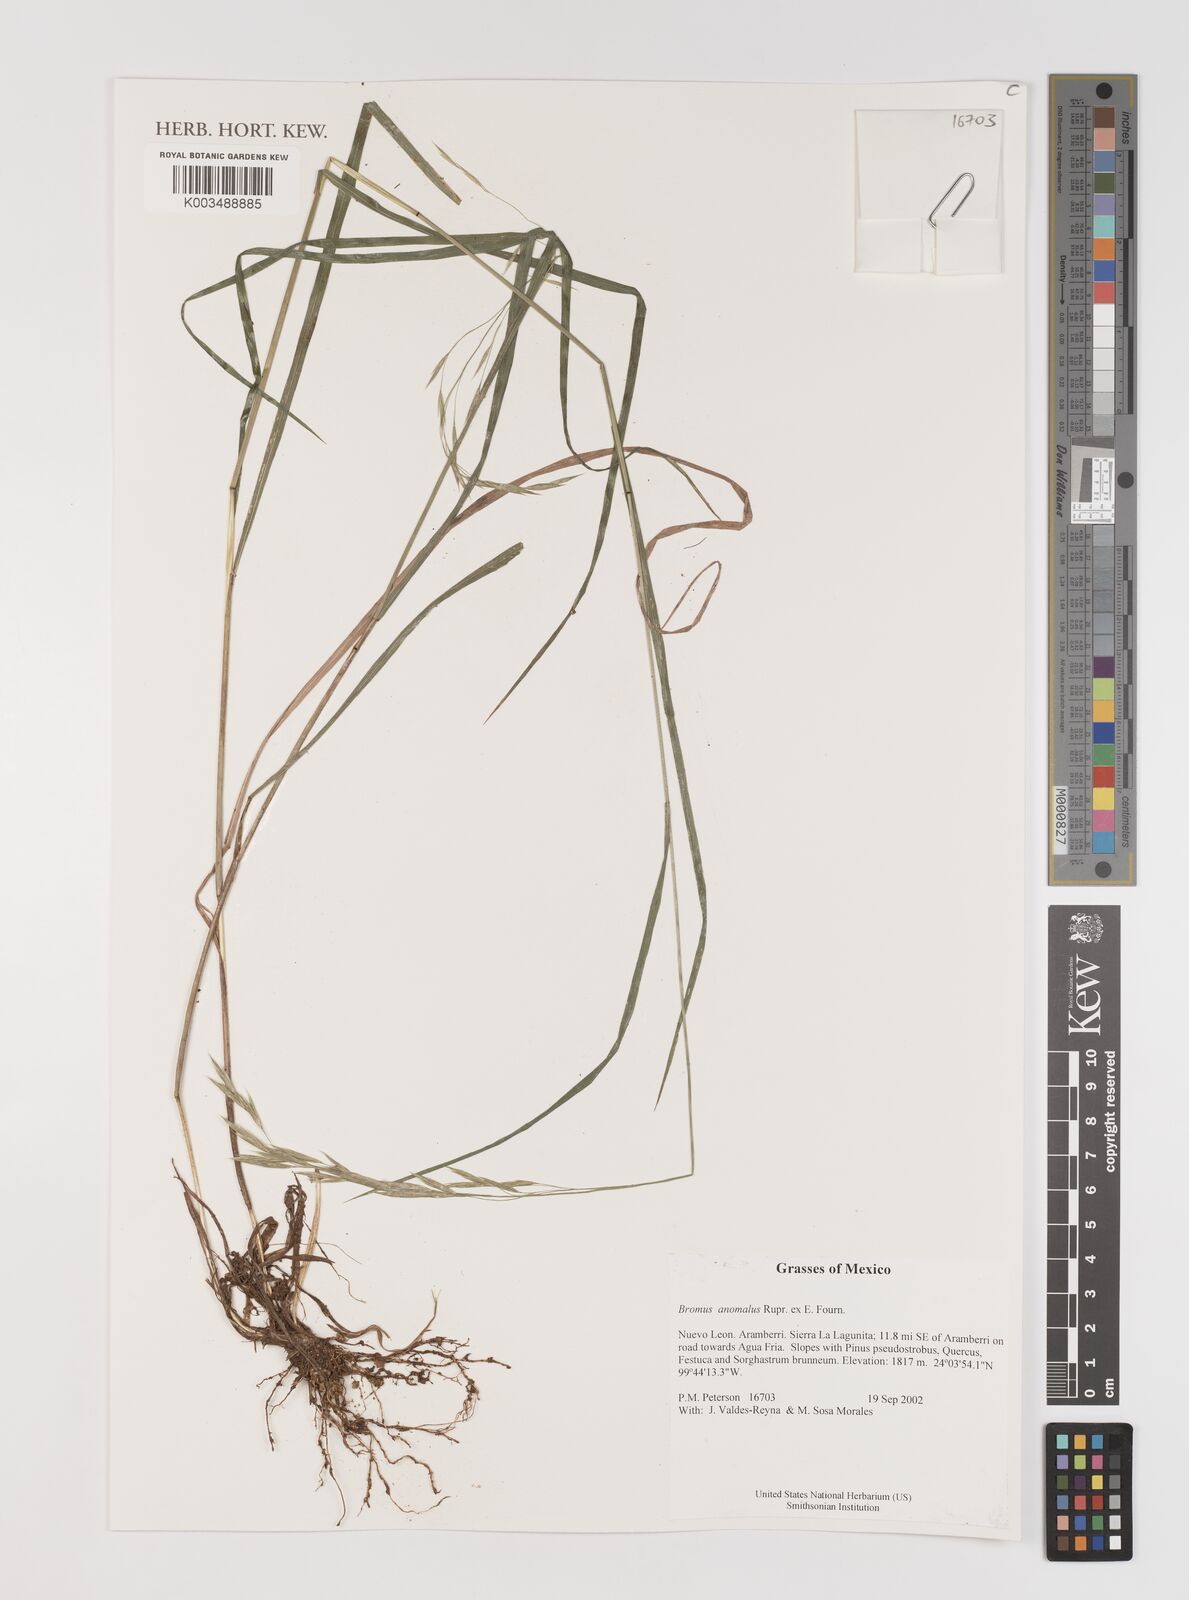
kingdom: Plantae
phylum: Tracheophyta
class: Liliopsida
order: Poales
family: Poaceae
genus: Bromus
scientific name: Bromus anomalus
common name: Nodding brome
